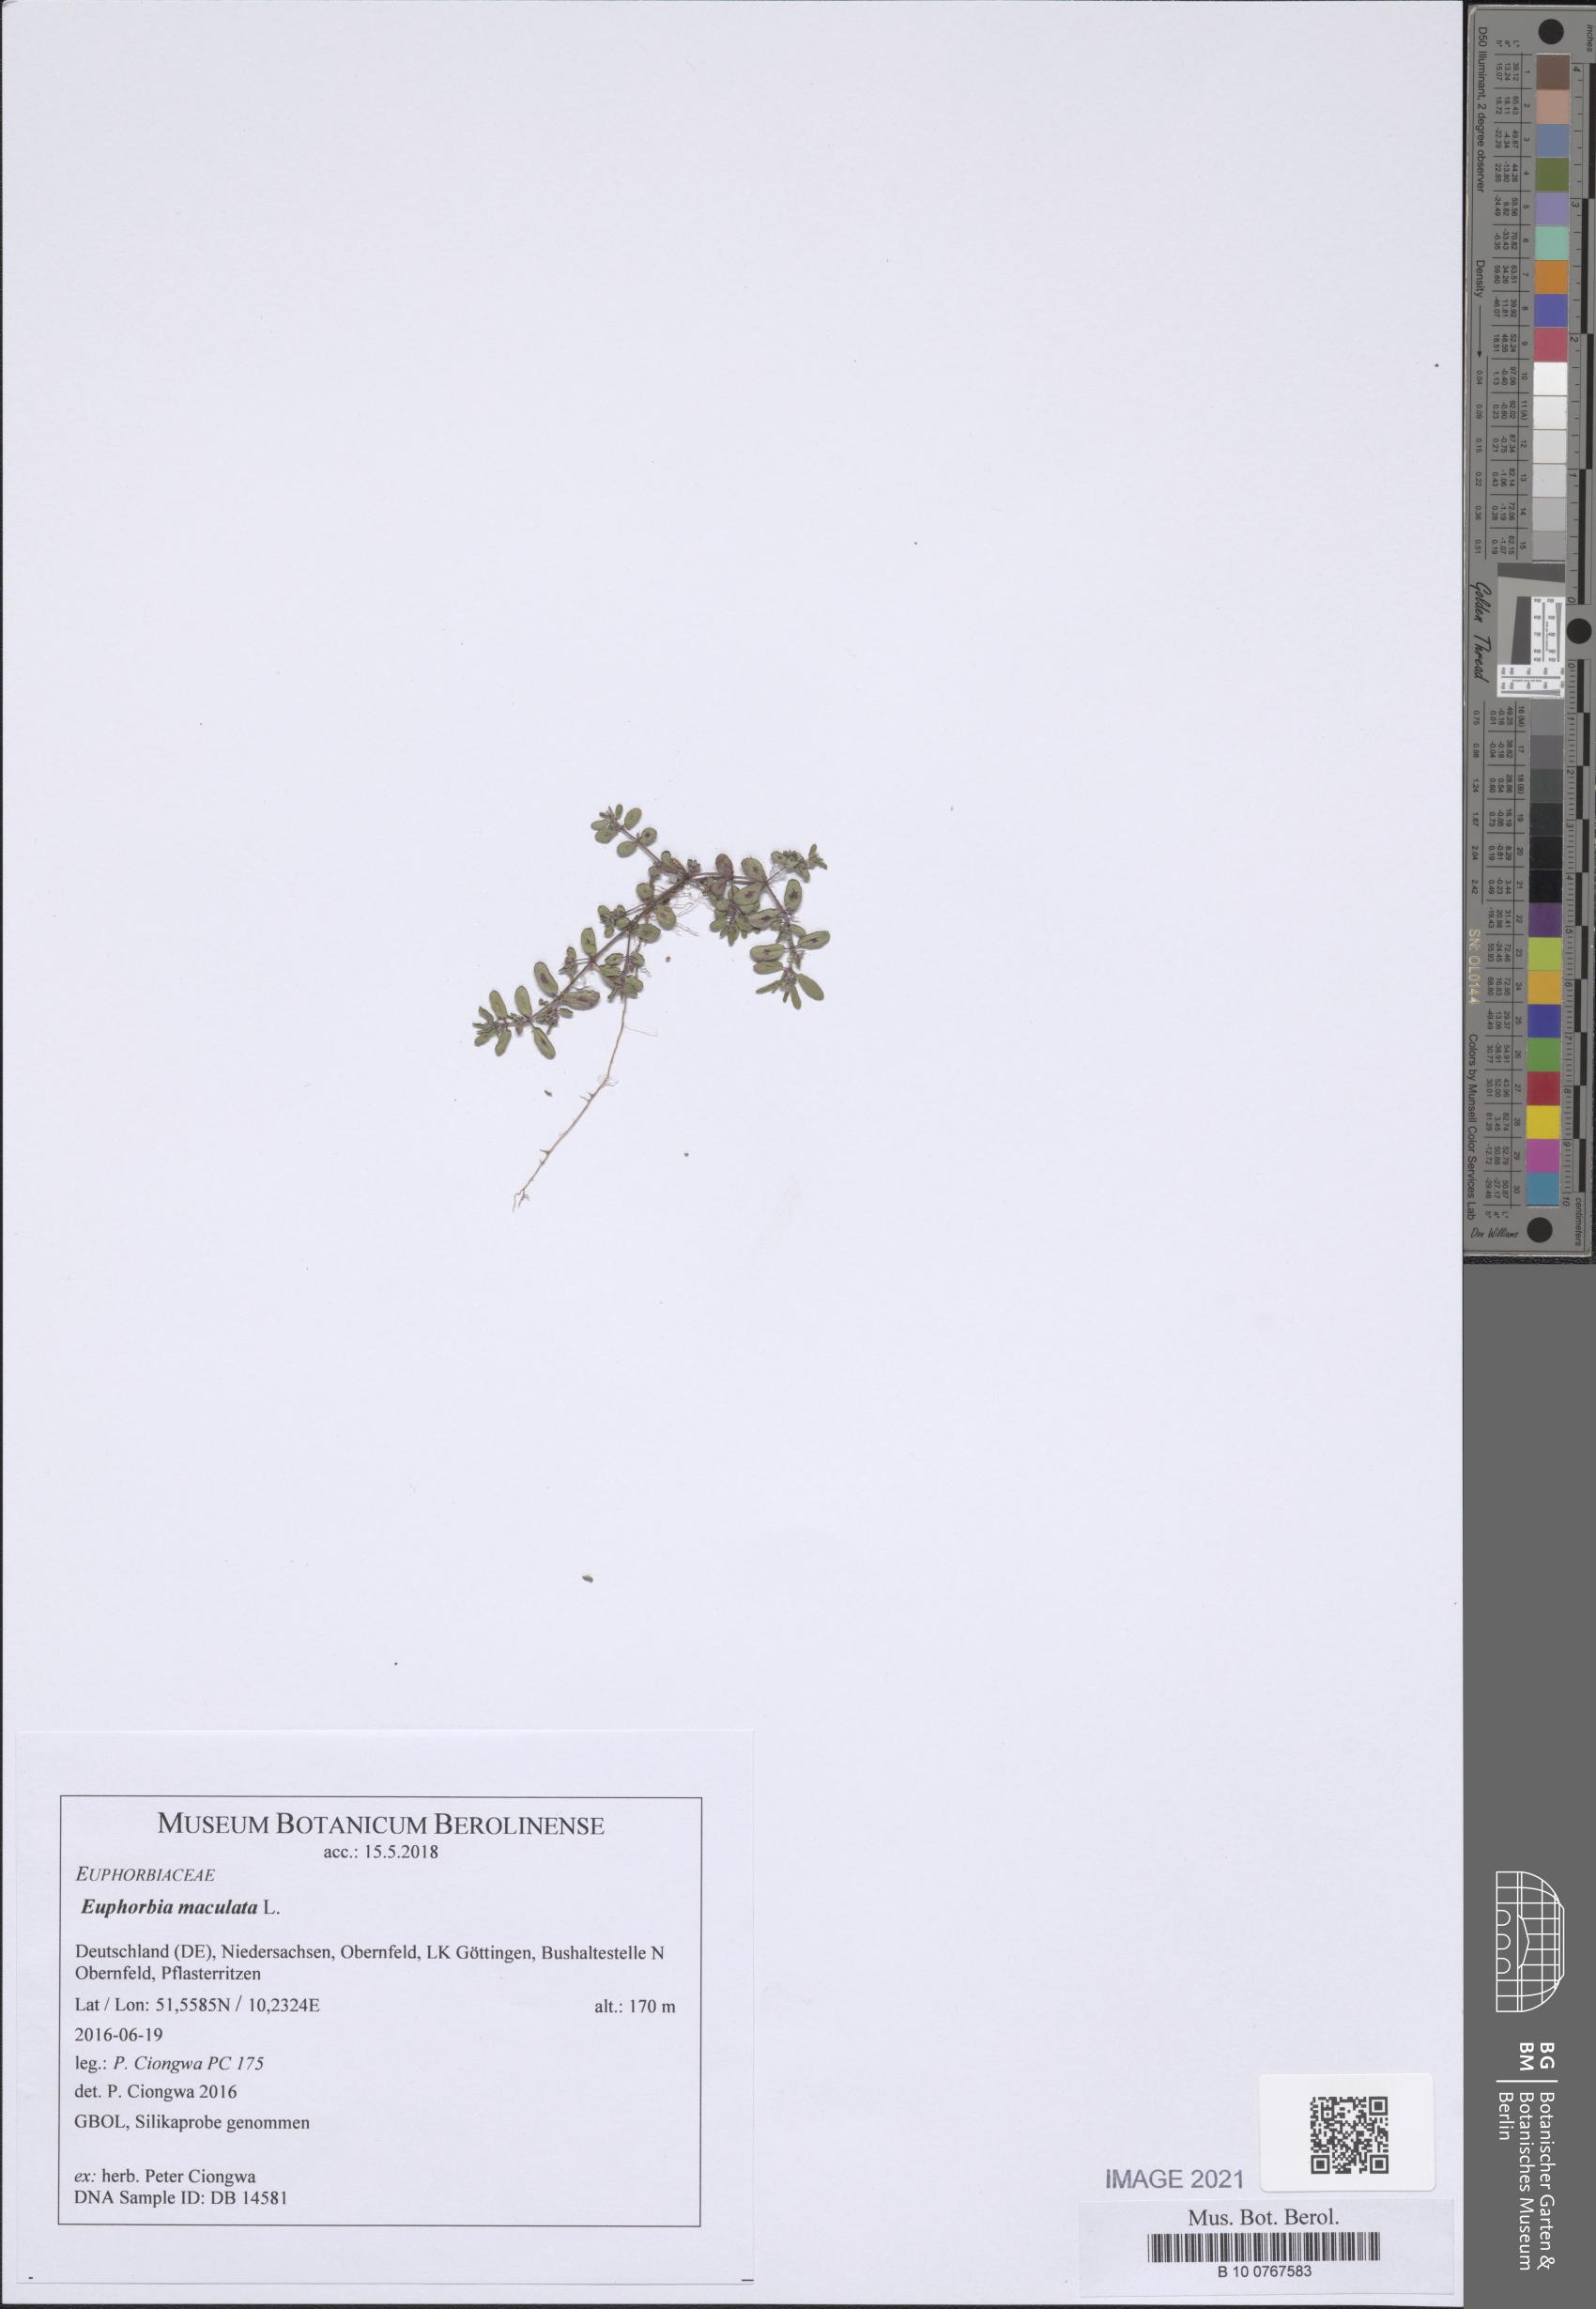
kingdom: Plantae
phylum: Tracheophyta
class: Magnoliopsida
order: Malpighiales
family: Euphorbiaceae
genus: Euphorbia
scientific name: Euphorbia maculata
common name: Spotted spurge
